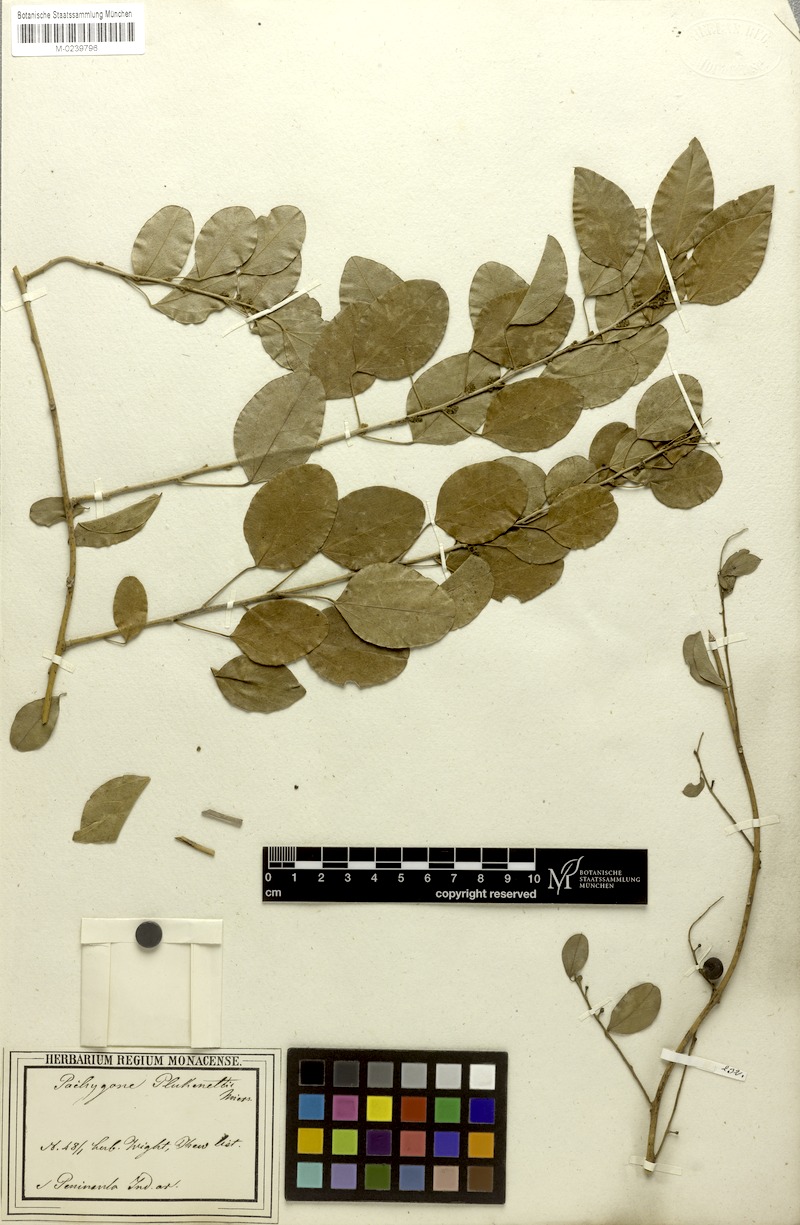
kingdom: Plantae
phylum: Tracheophyta
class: Magnoliopsida
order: Ranunculales
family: Menispermaceae
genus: Pachygone
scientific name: Pachygone ovata
